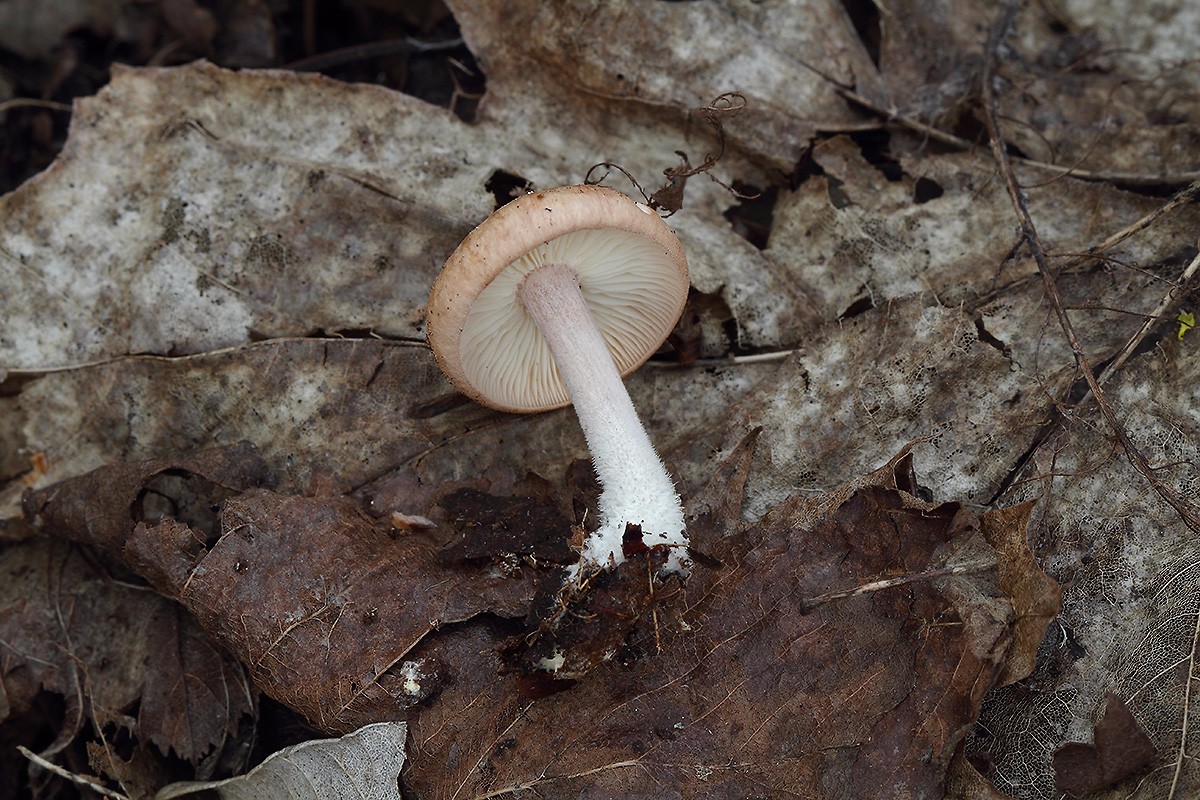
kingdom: Fungi
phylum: Basidiomycota
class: Agaricomycetes
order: Agaricales
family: Omphalotaceae
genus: Gymnopus
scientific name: Gymnopus hariolorum
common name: hvidkåls-fladhat
